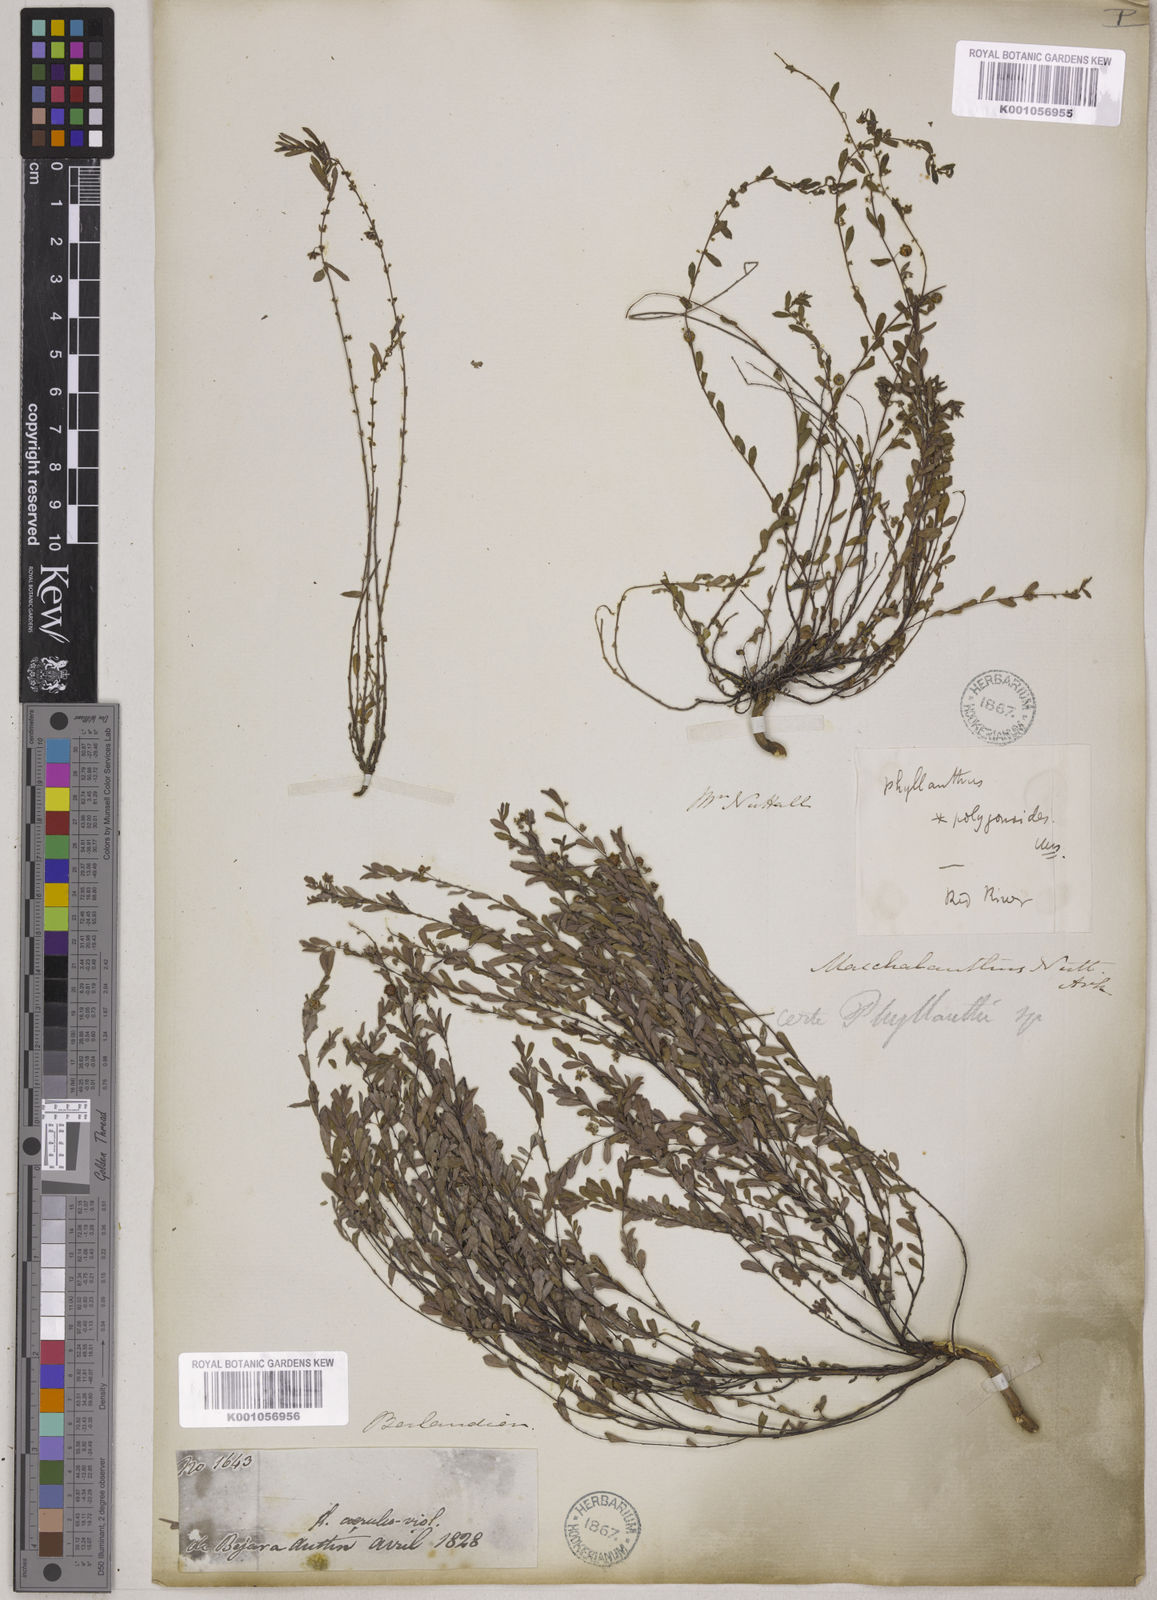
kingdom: Plantae
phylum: Tracheophyta
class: Magnoliopsida
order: Malpighiales
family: Phyllanthaceae
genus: Phyllanthus
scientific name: Phyllanthus polygonoides
